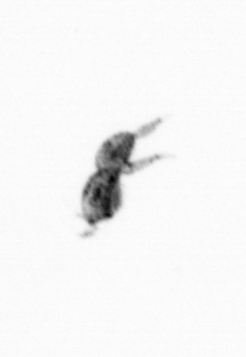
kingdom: Animalia
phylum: Arthropoda
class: Copepoda
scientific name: Copepoda
